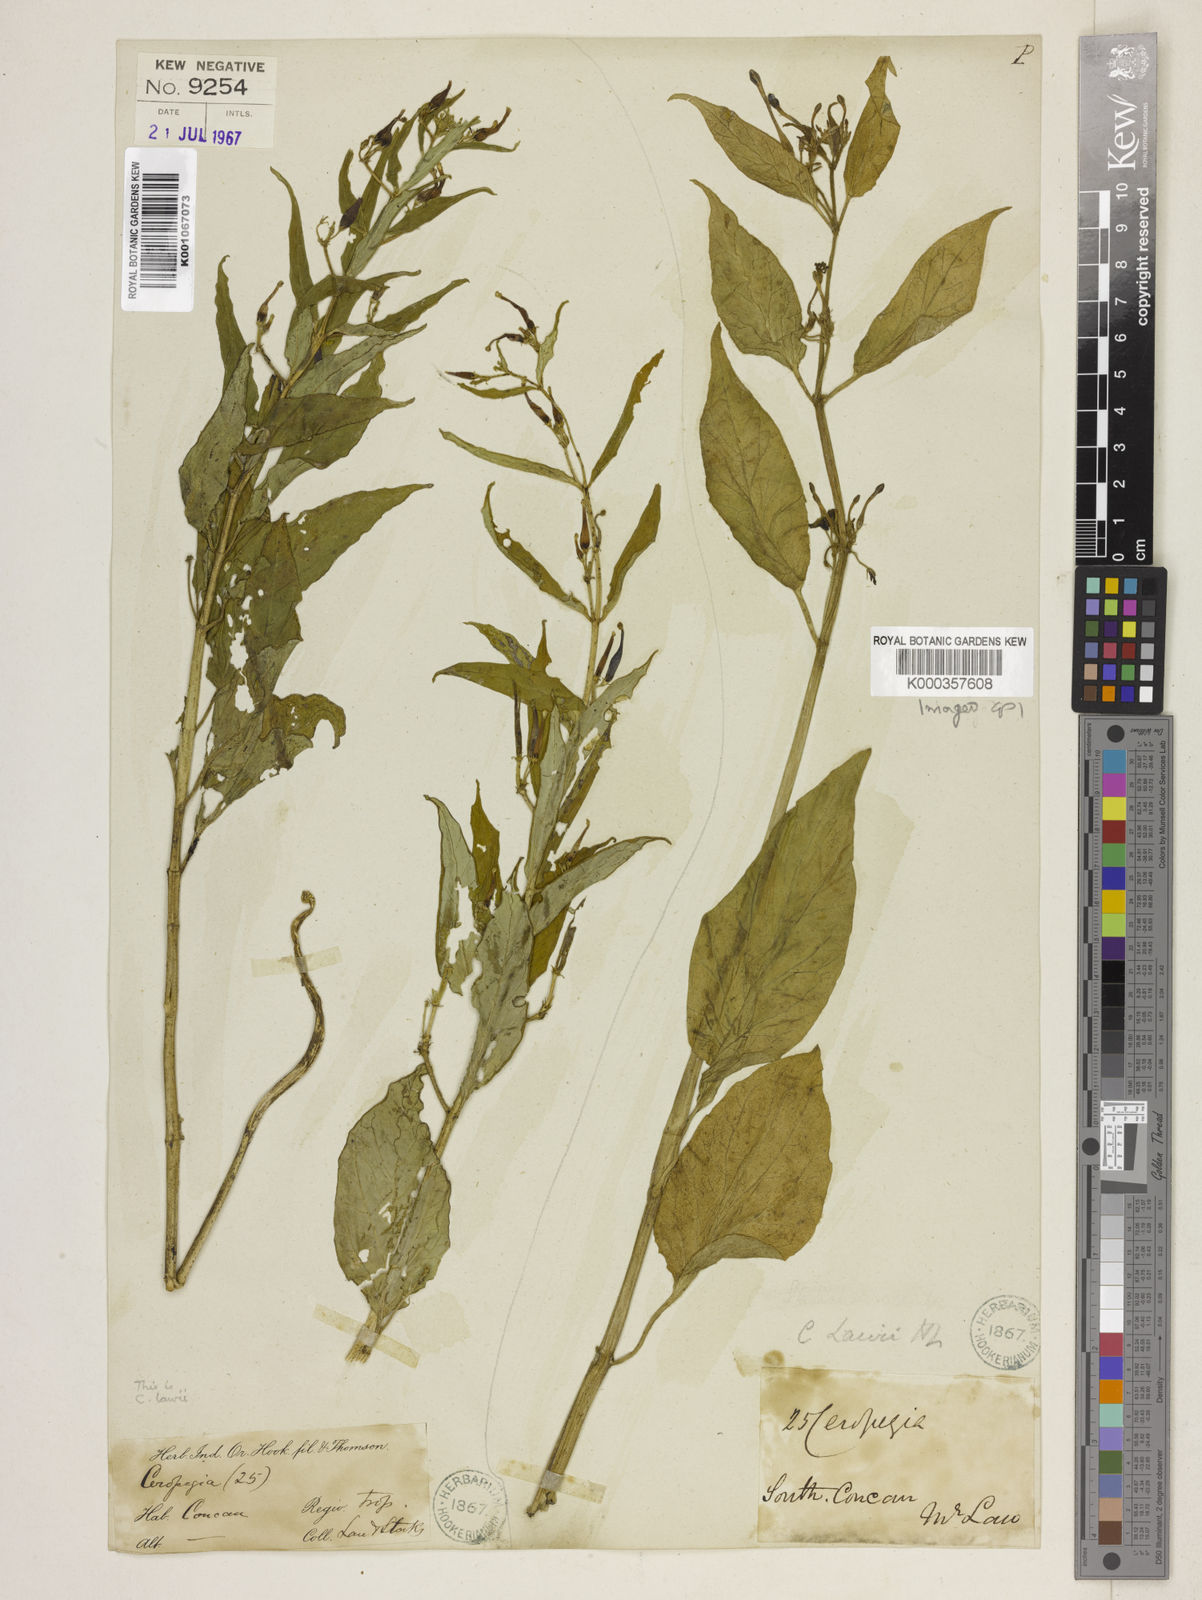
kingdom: Plantae
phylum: Tracheophyta
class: Magnoliopsida
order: Gentianales
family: Apocynaceae
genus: Ceropegia
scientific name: Ceropegia lawii
